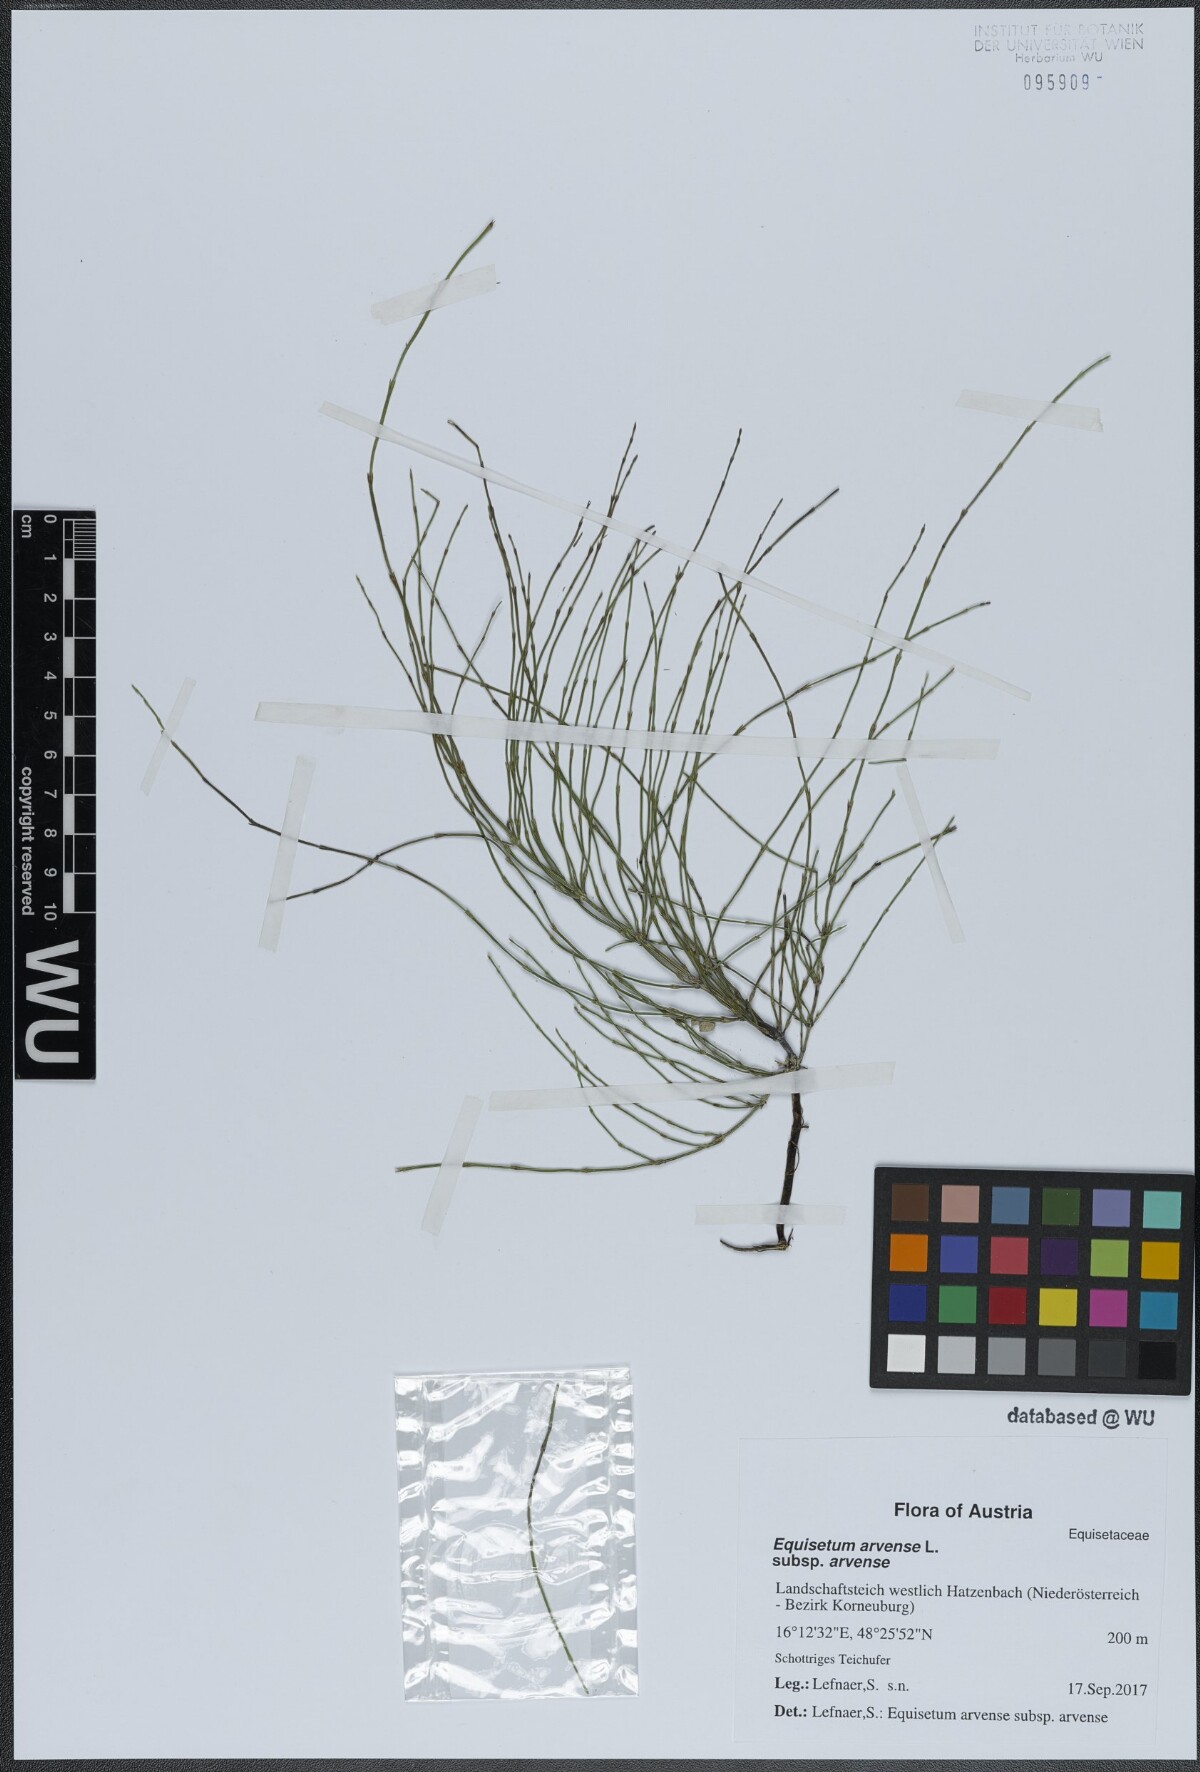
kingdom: Plantae
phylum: Tracheophyta
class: Polypodiopsida
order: Equisetales
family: Equisetaceae
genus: Equisetum
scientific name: Equisetum arvense
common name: Field horsetail
